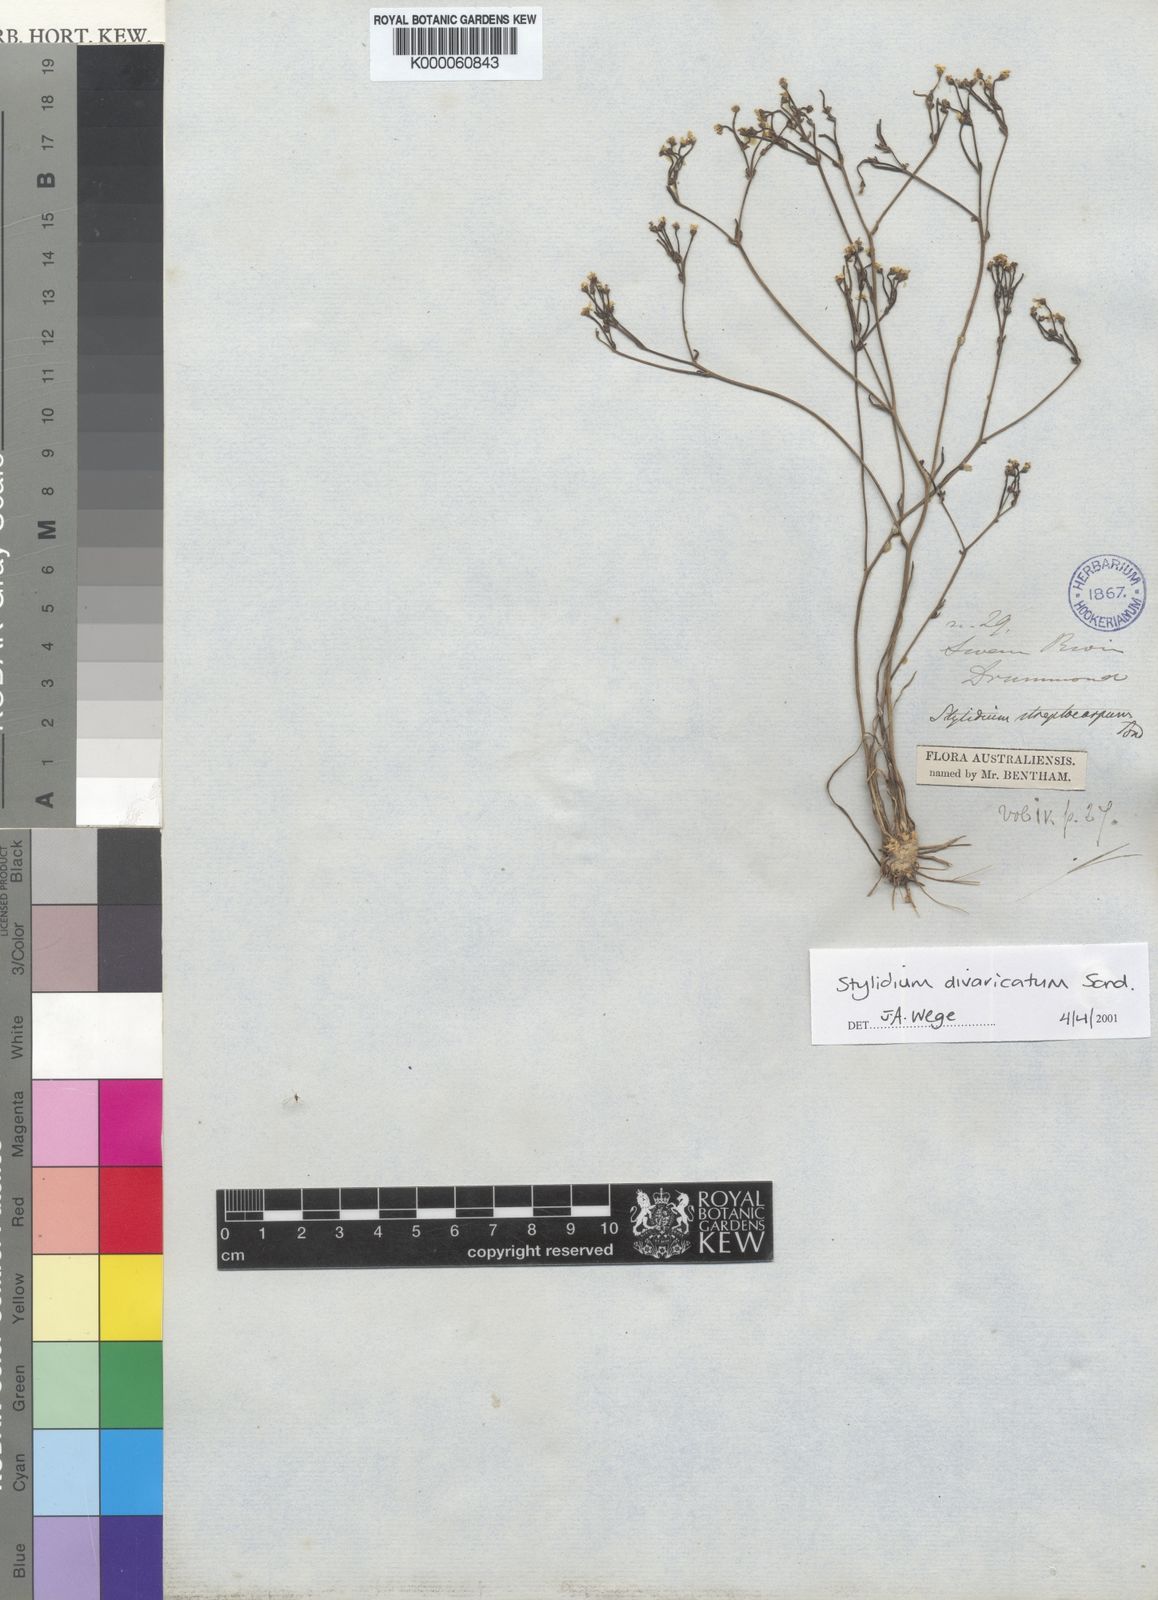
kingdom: Plantae
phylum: Tracheophyta
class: Magnoliopsida
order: Asterales
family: Stylidiaceae
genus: Stylidium
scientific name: Stylidium divaricatum
